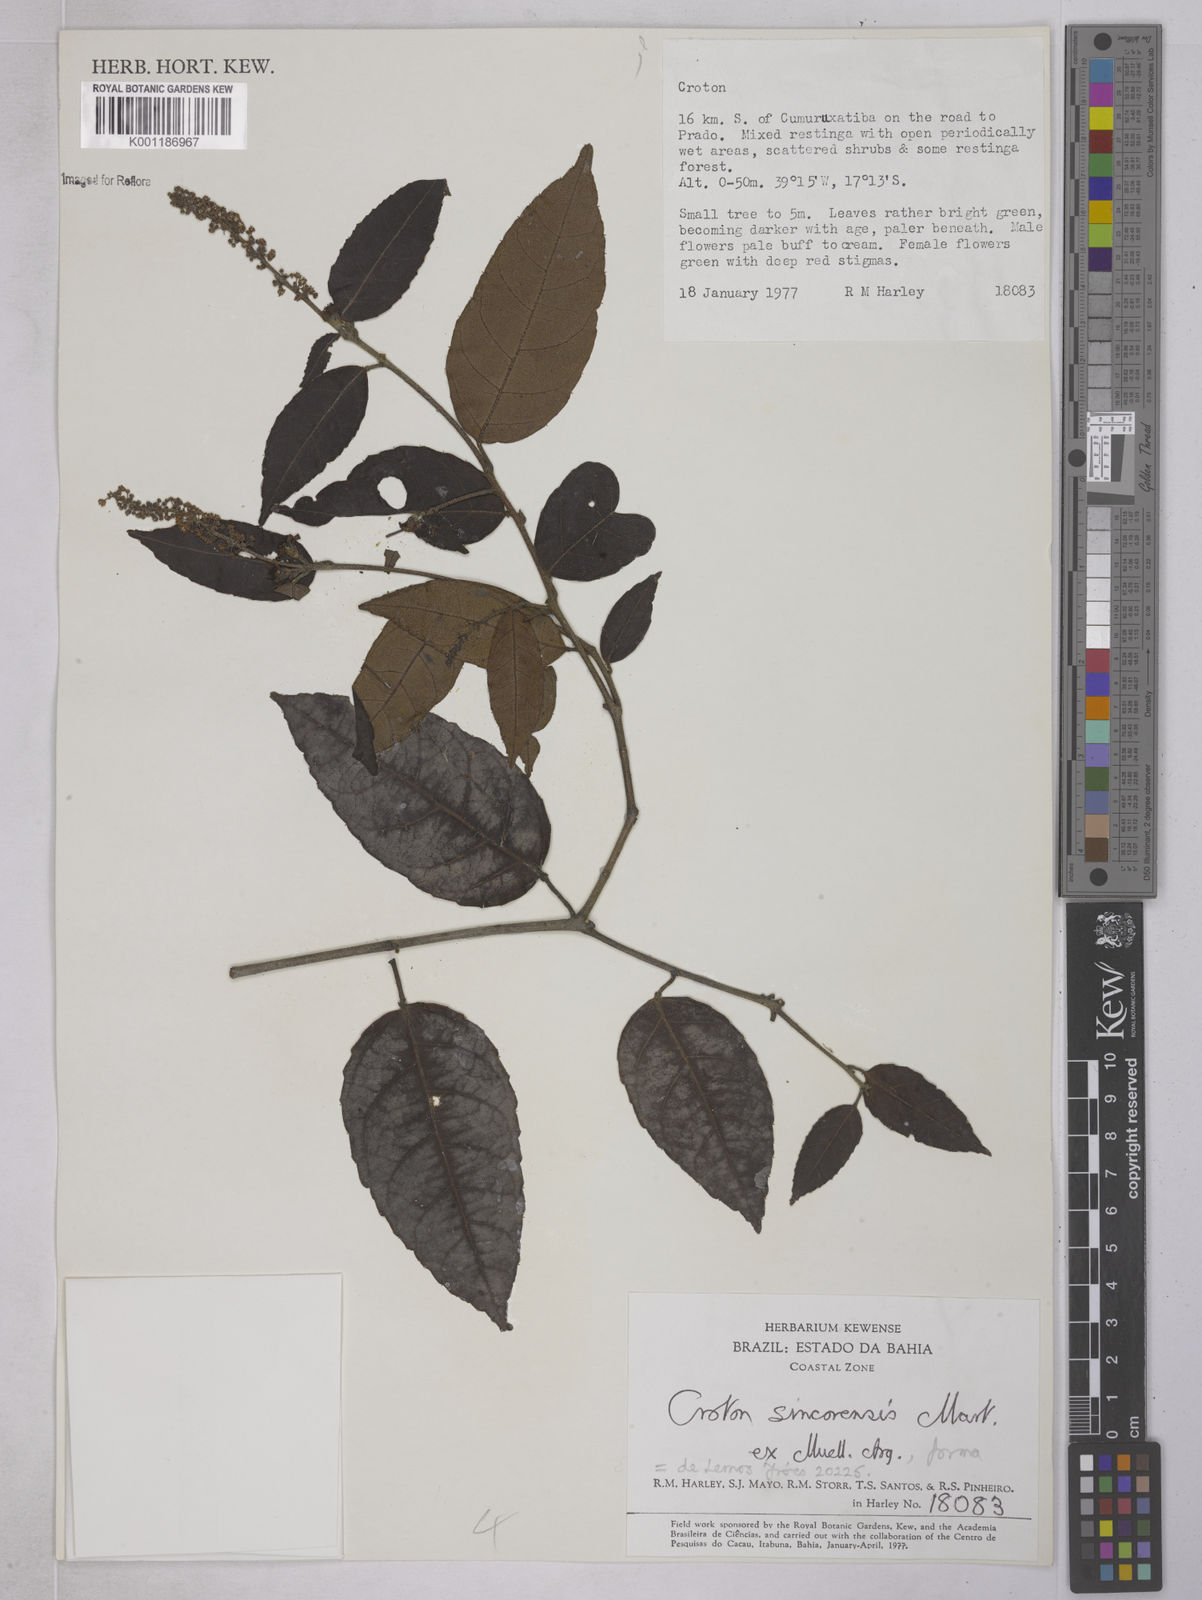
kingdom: Plantae
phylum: Tracheophyta
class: Magnoliopsida
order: Malpighiales
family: Euphorbiaceae
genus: Croton
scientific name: Croton sincorensis
